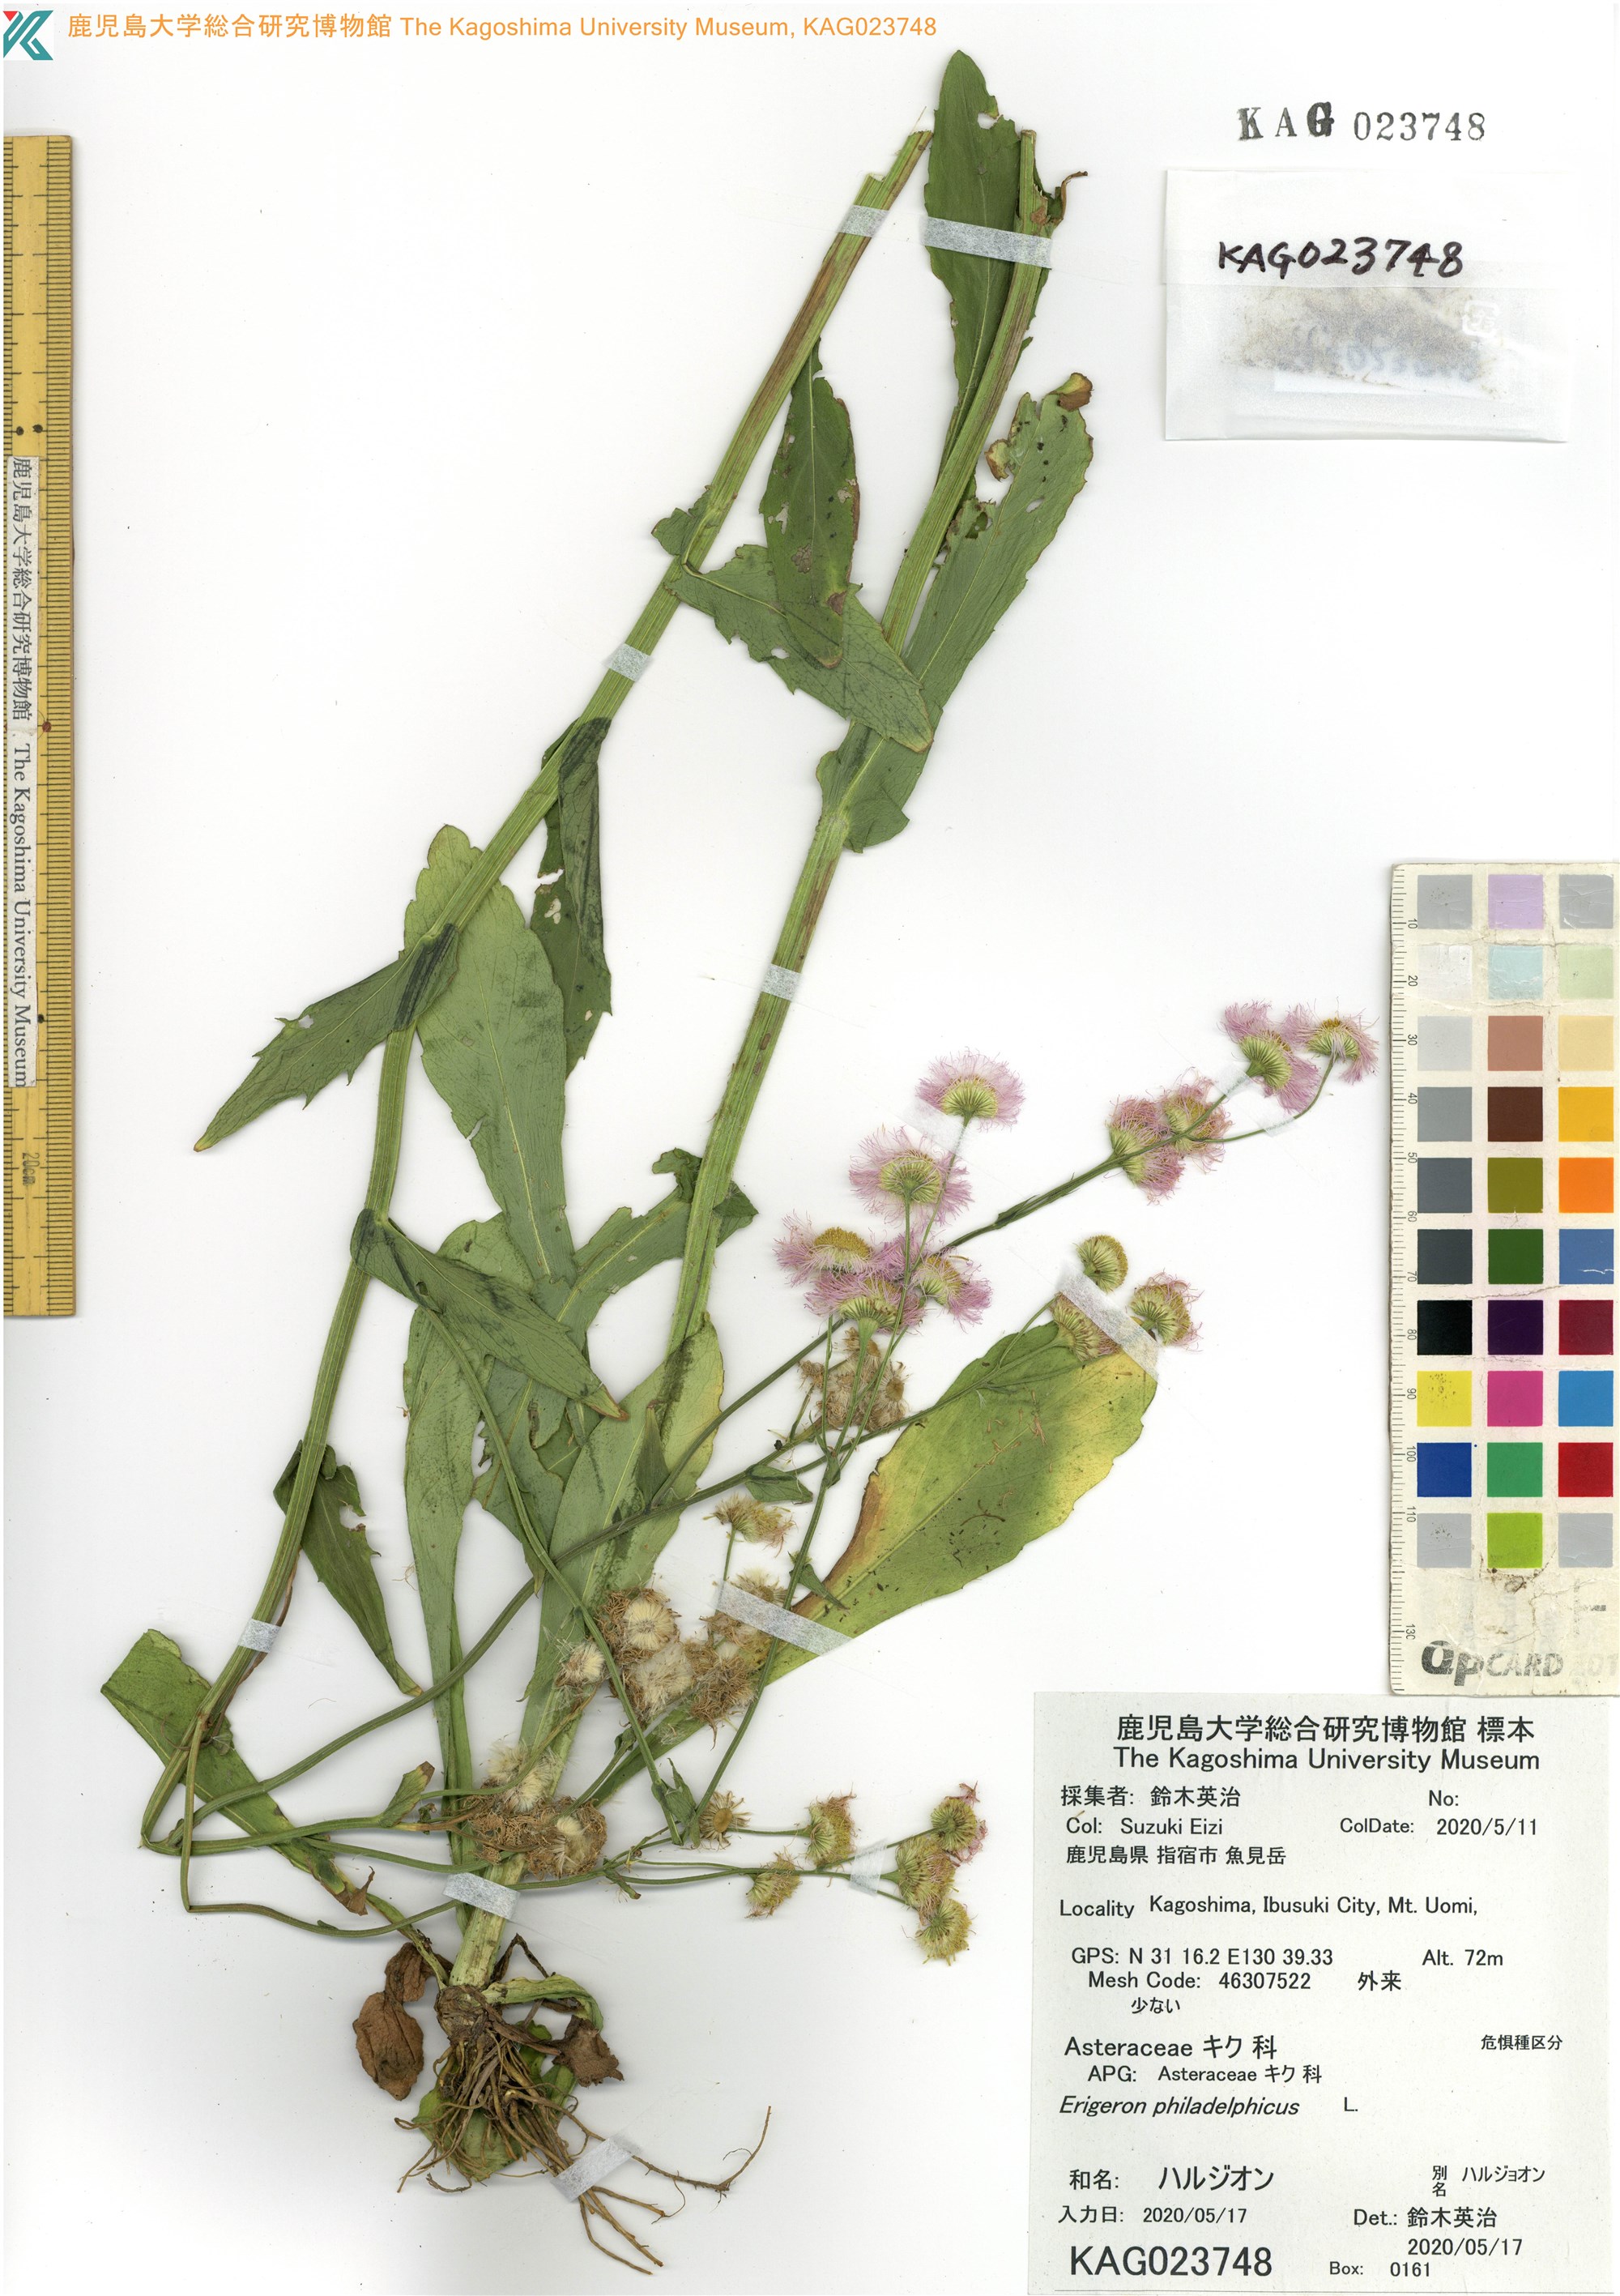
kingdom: Plantae
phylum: Tracheophyta
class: Magnoliopsida
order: Asterales
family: Asteraceae
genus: Erigeron
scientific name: Erigeron philadelphicus
